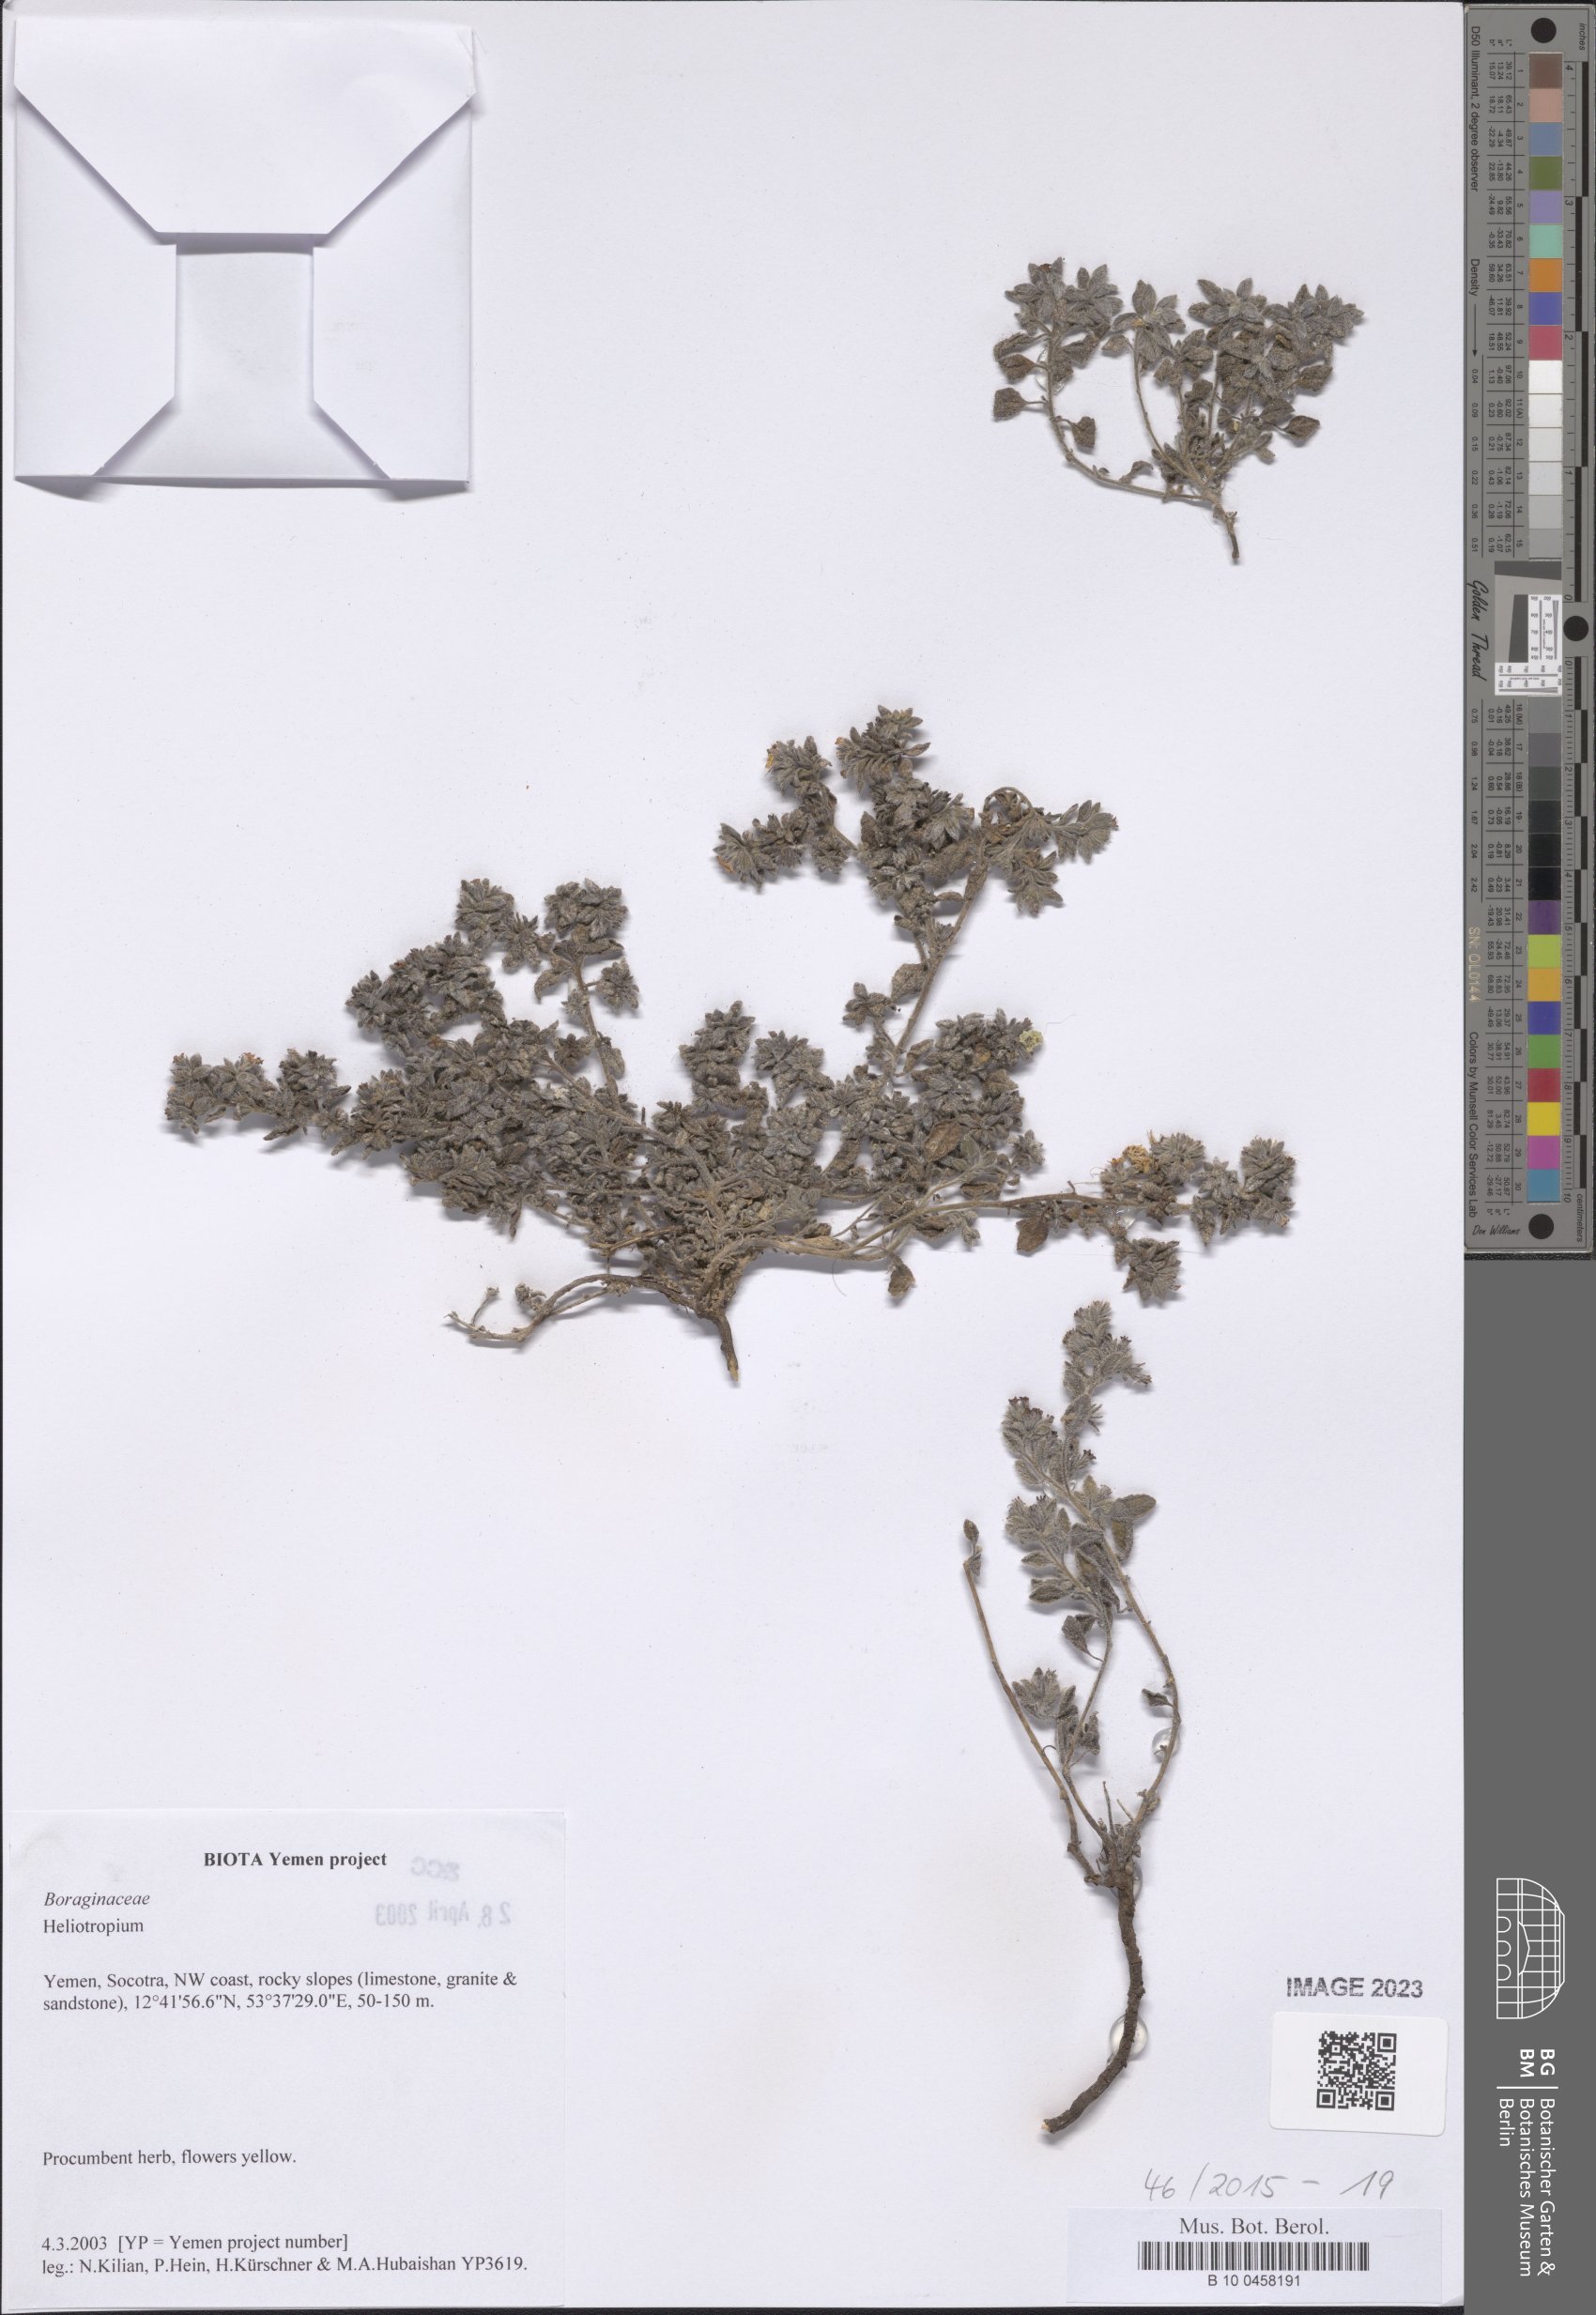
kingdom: Plantae
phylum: Tracheophyta
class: Magnoliopsida
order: Boraginales
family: Heliotropiaceae
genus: Heliotropium
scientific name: Heliotropium
